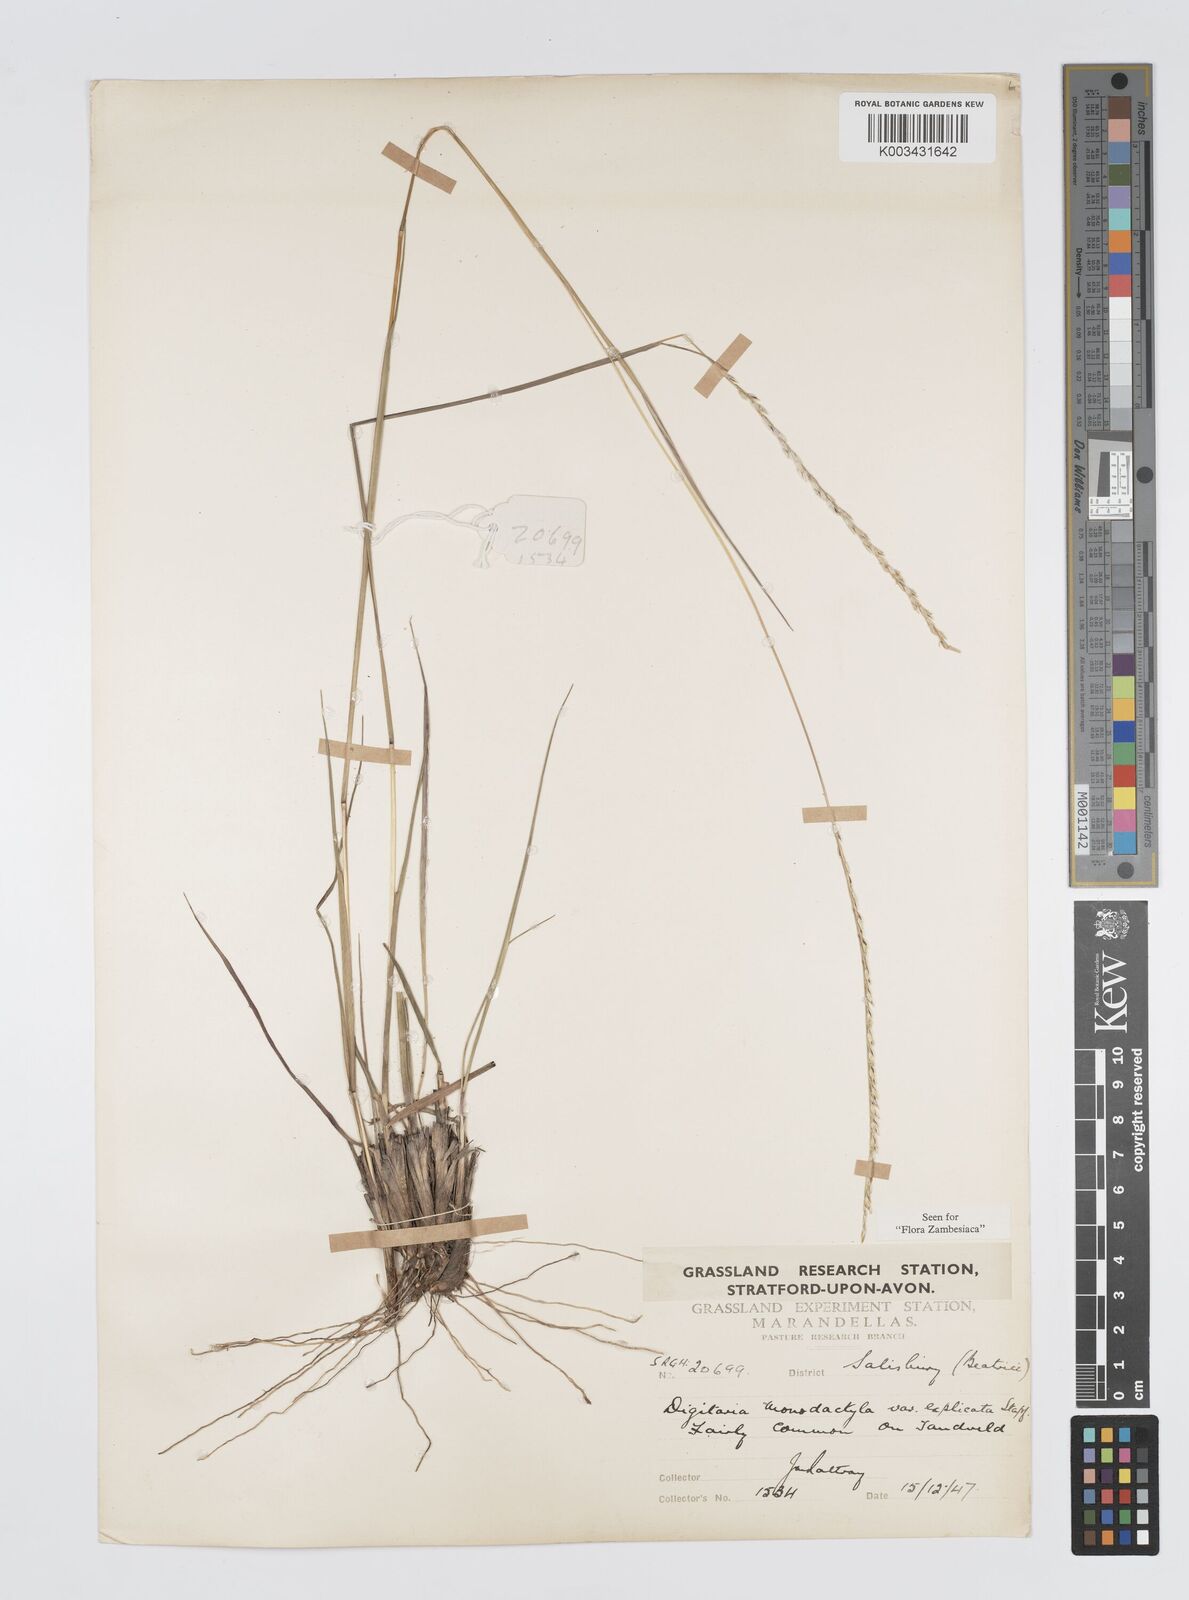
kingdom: Plantae
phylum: Tracheophyta
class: Liliopsida
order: Poales
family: Poaceae
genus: Digitaria
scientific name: Digitaria monodactyla
